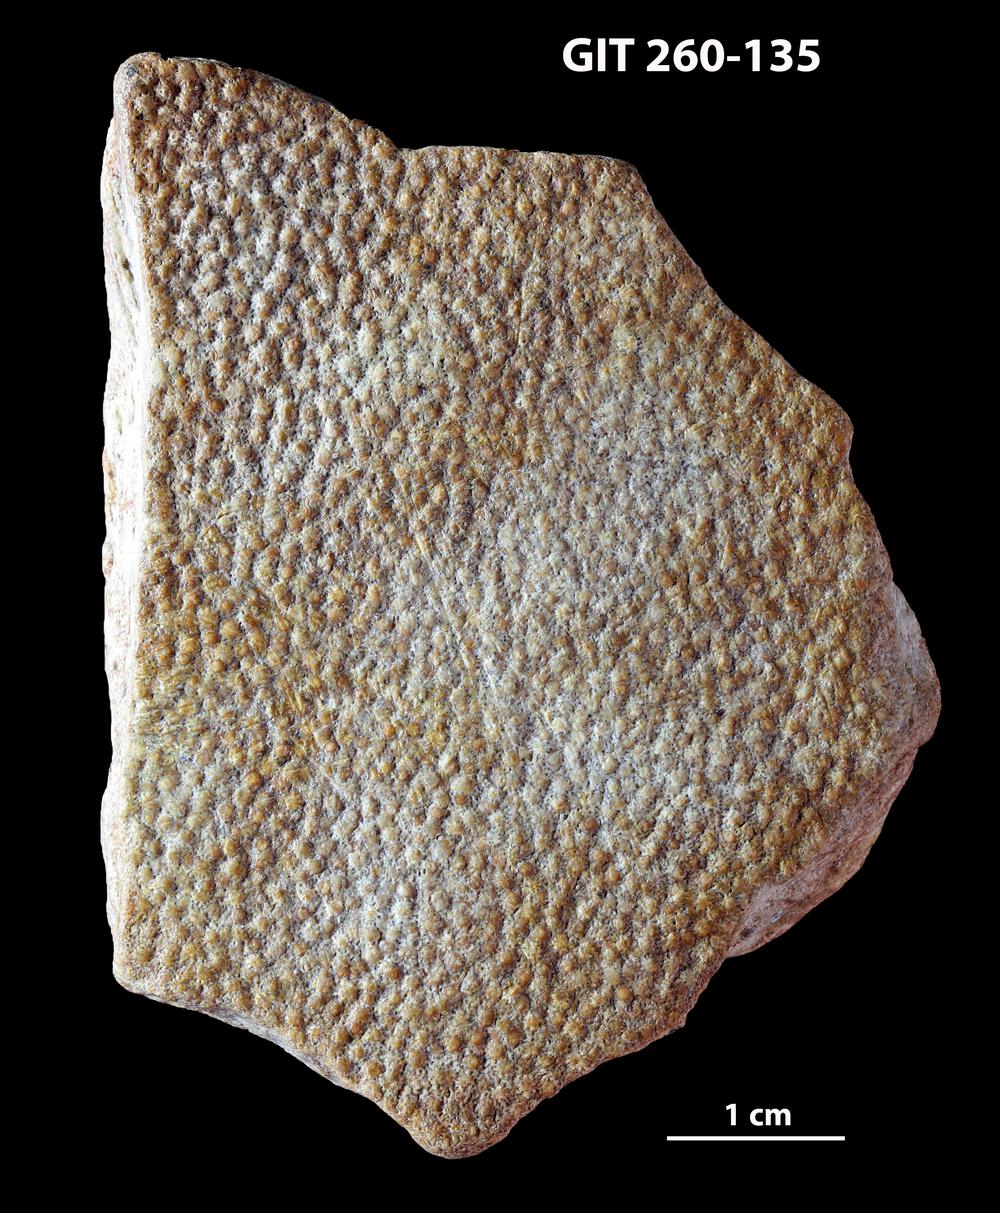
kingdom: Animalia
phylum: Chordata
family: Homostiidae
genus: Homostius
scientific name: Homostius
